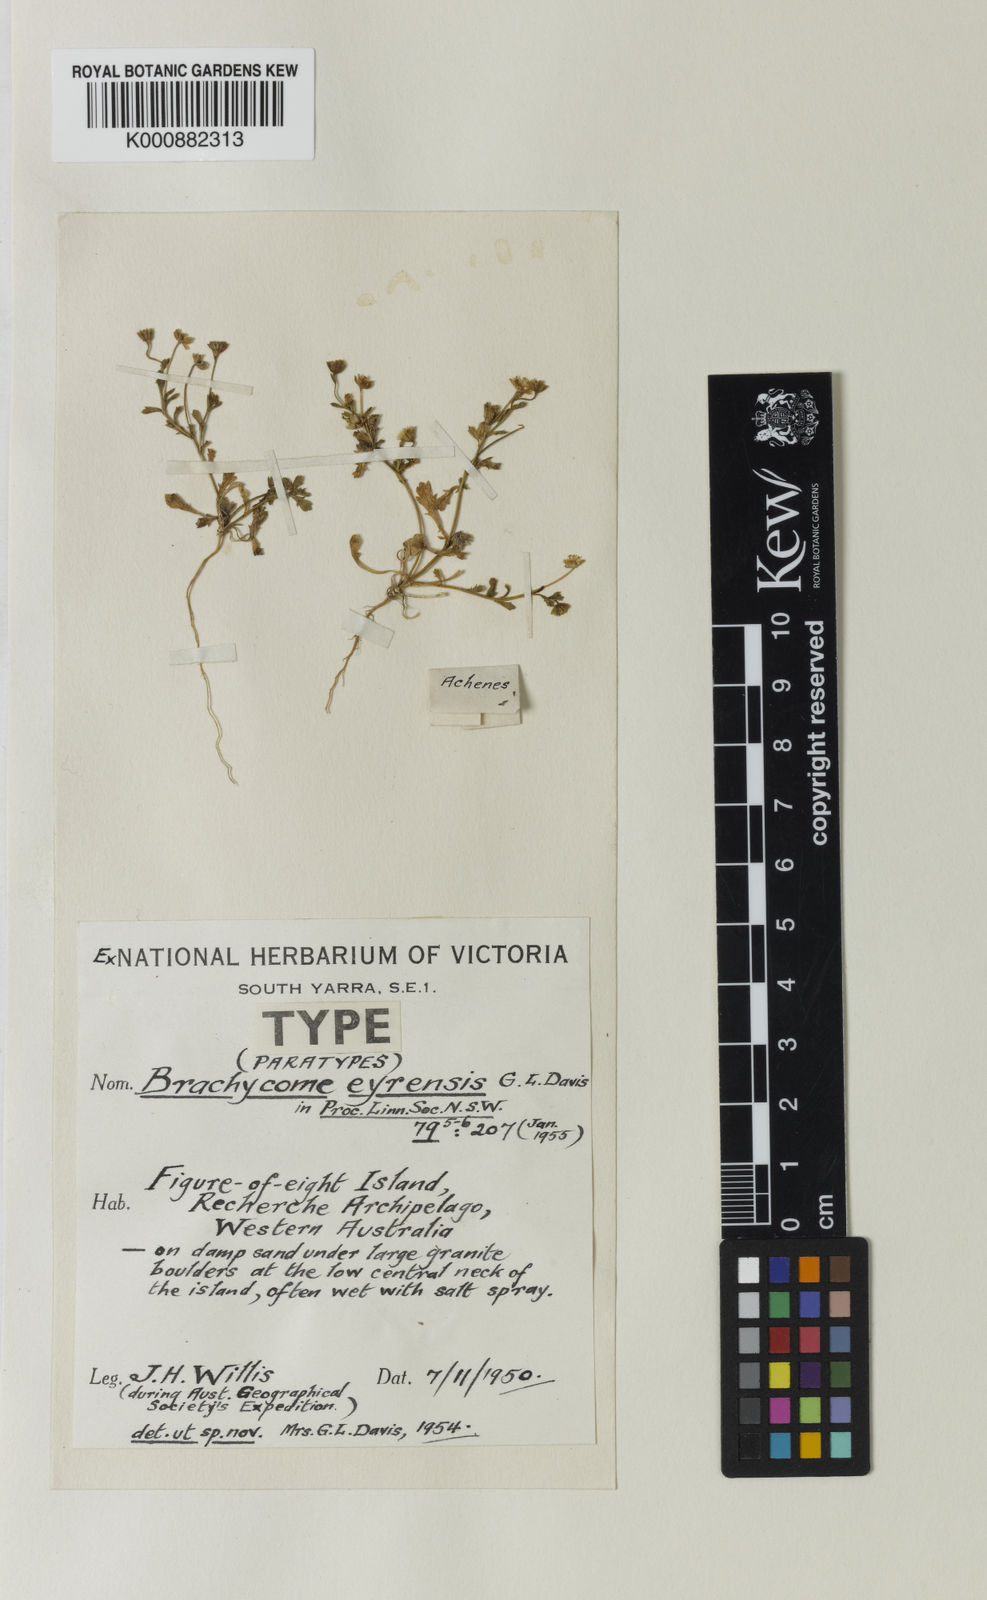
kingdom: Plantae
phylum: Tracheophyta
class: Magnoliopsida
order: Asterales
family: Asteraceae
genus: Brachyscome
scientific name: Brachyscome eyrensis
